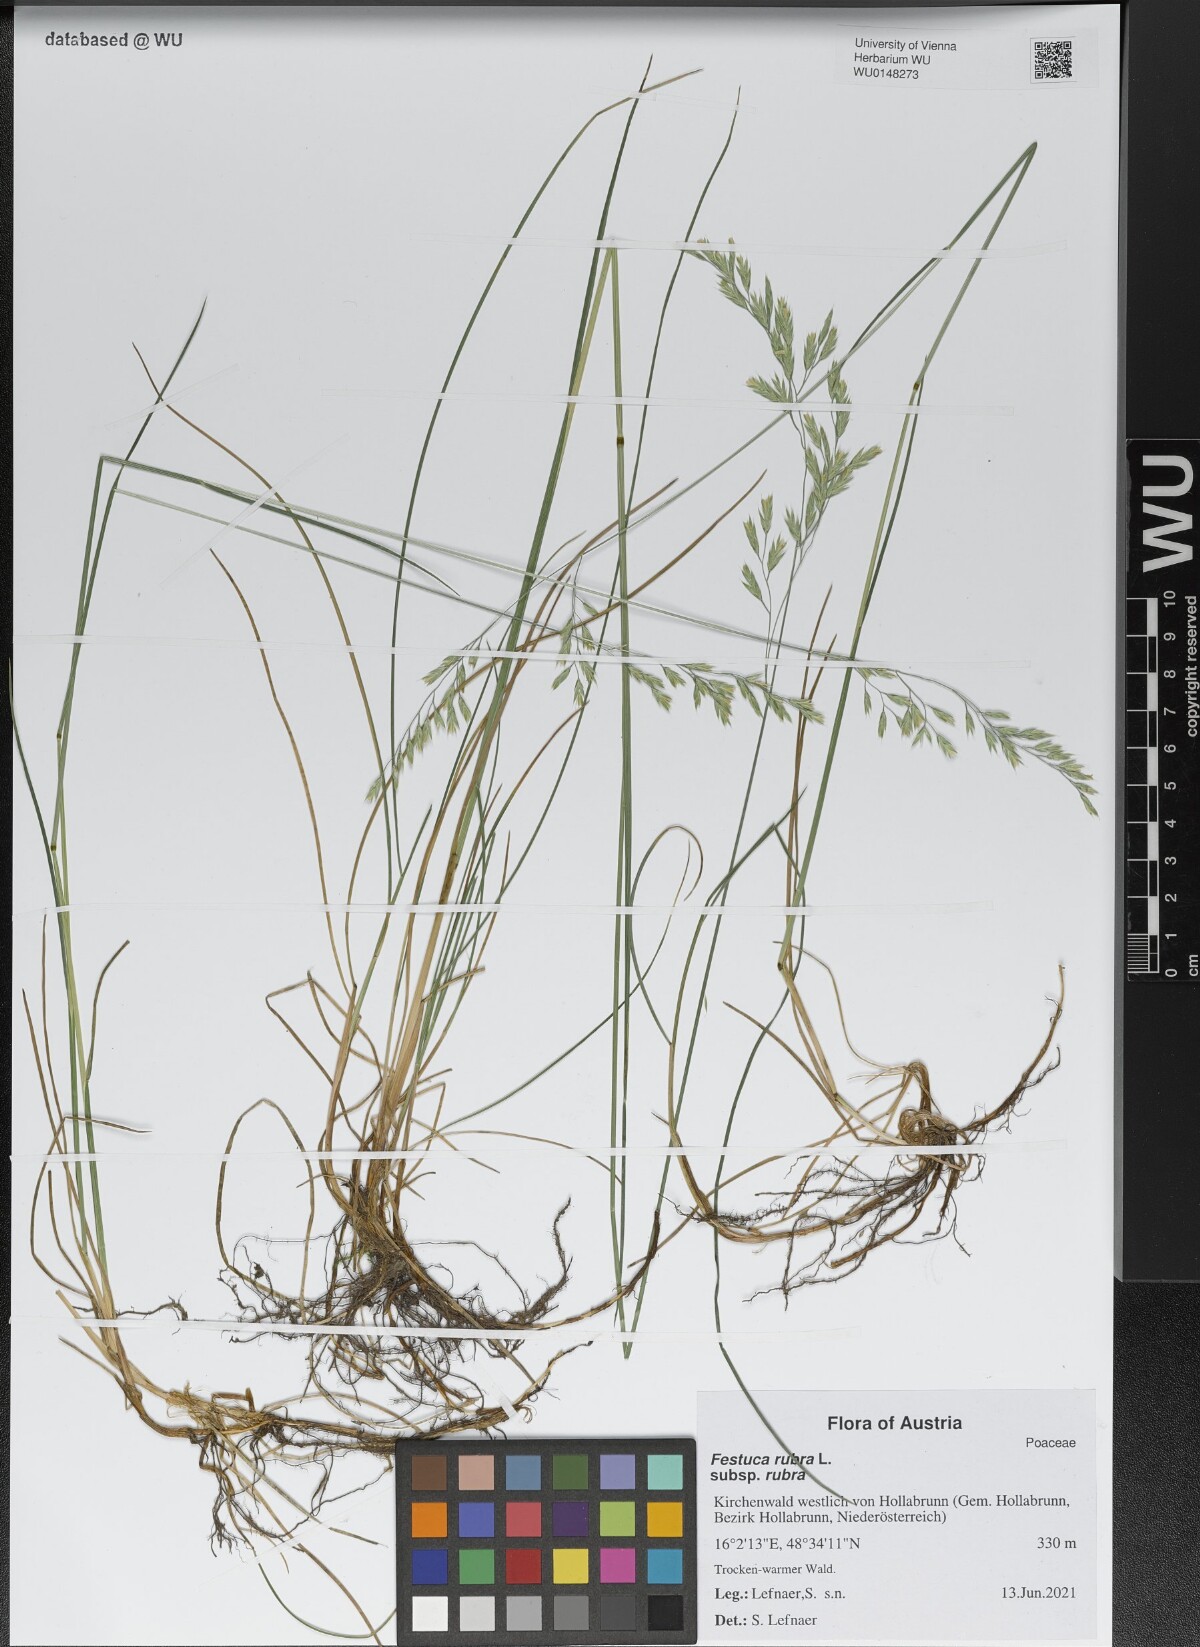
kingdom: Plantae
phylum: Tracheophyta
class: Liliopsida
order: Poales
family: Poaceae
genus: Festuca
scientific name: Festuca rubra
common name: Red fescue
